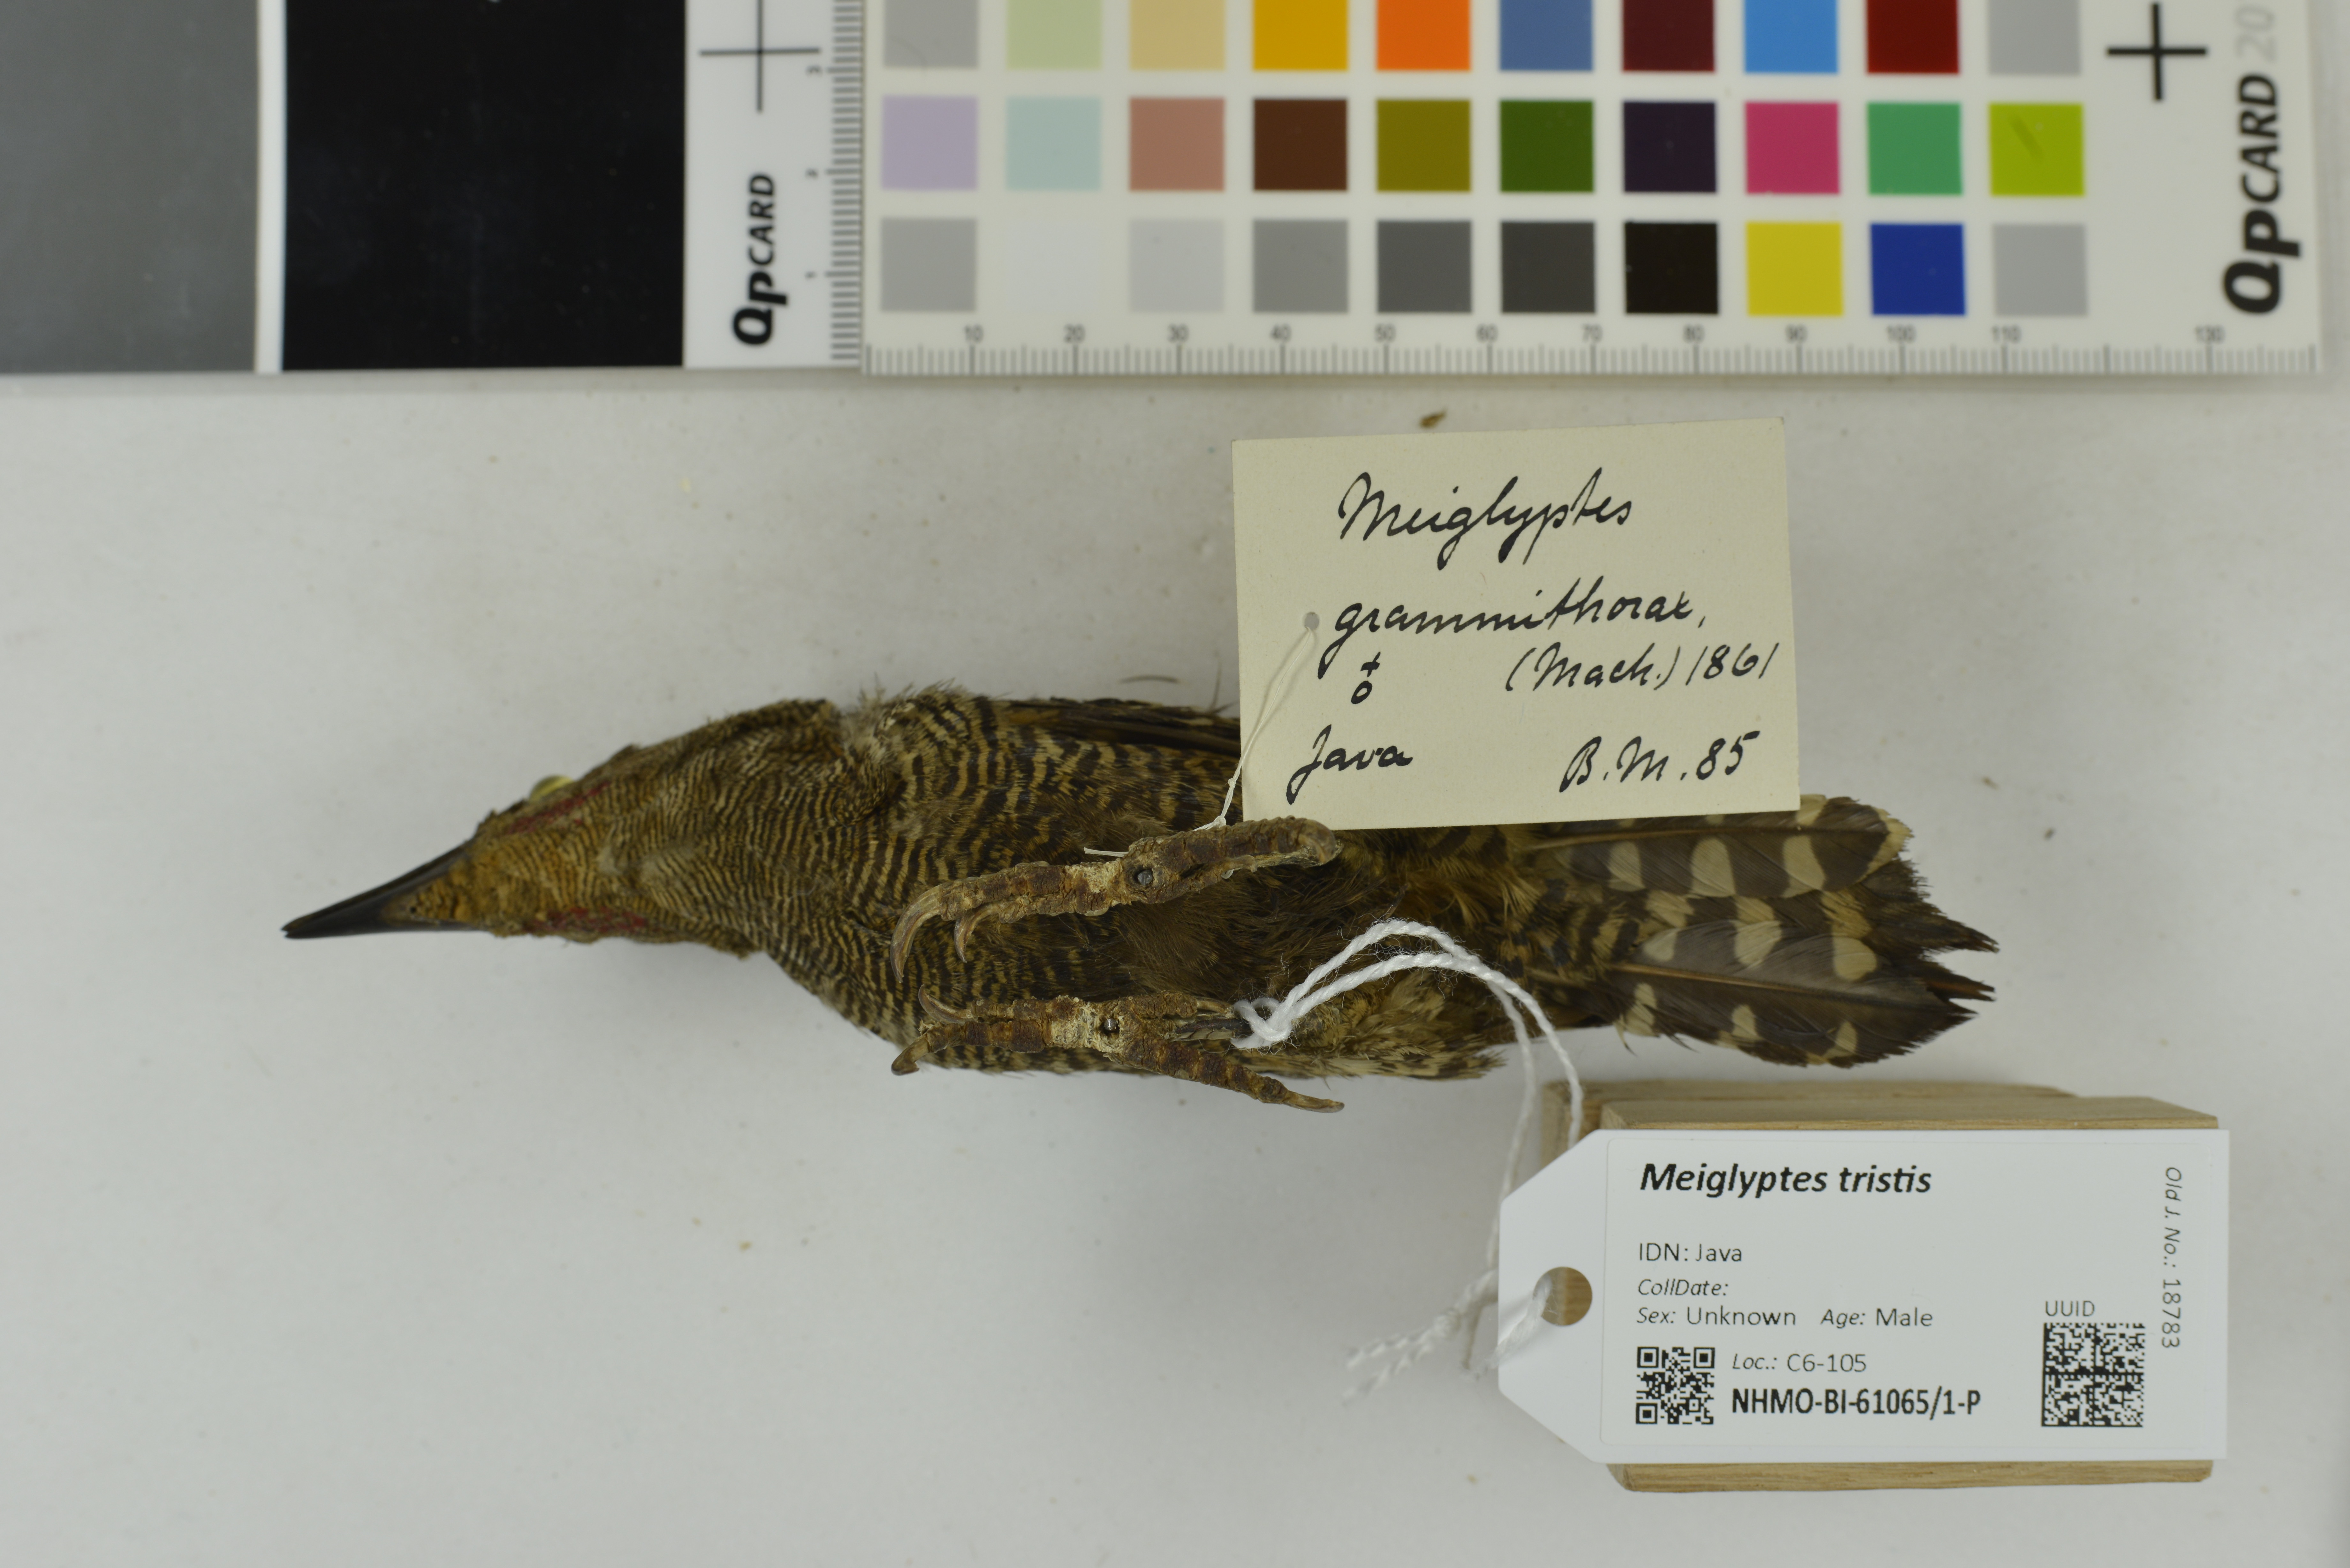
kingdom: Animalia
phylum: Chordata
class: Aves
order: Piciformes
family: Picidae
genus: Meiglyptes
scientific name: Meiglyptes tristis
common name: Buff-rumped woodpecker
